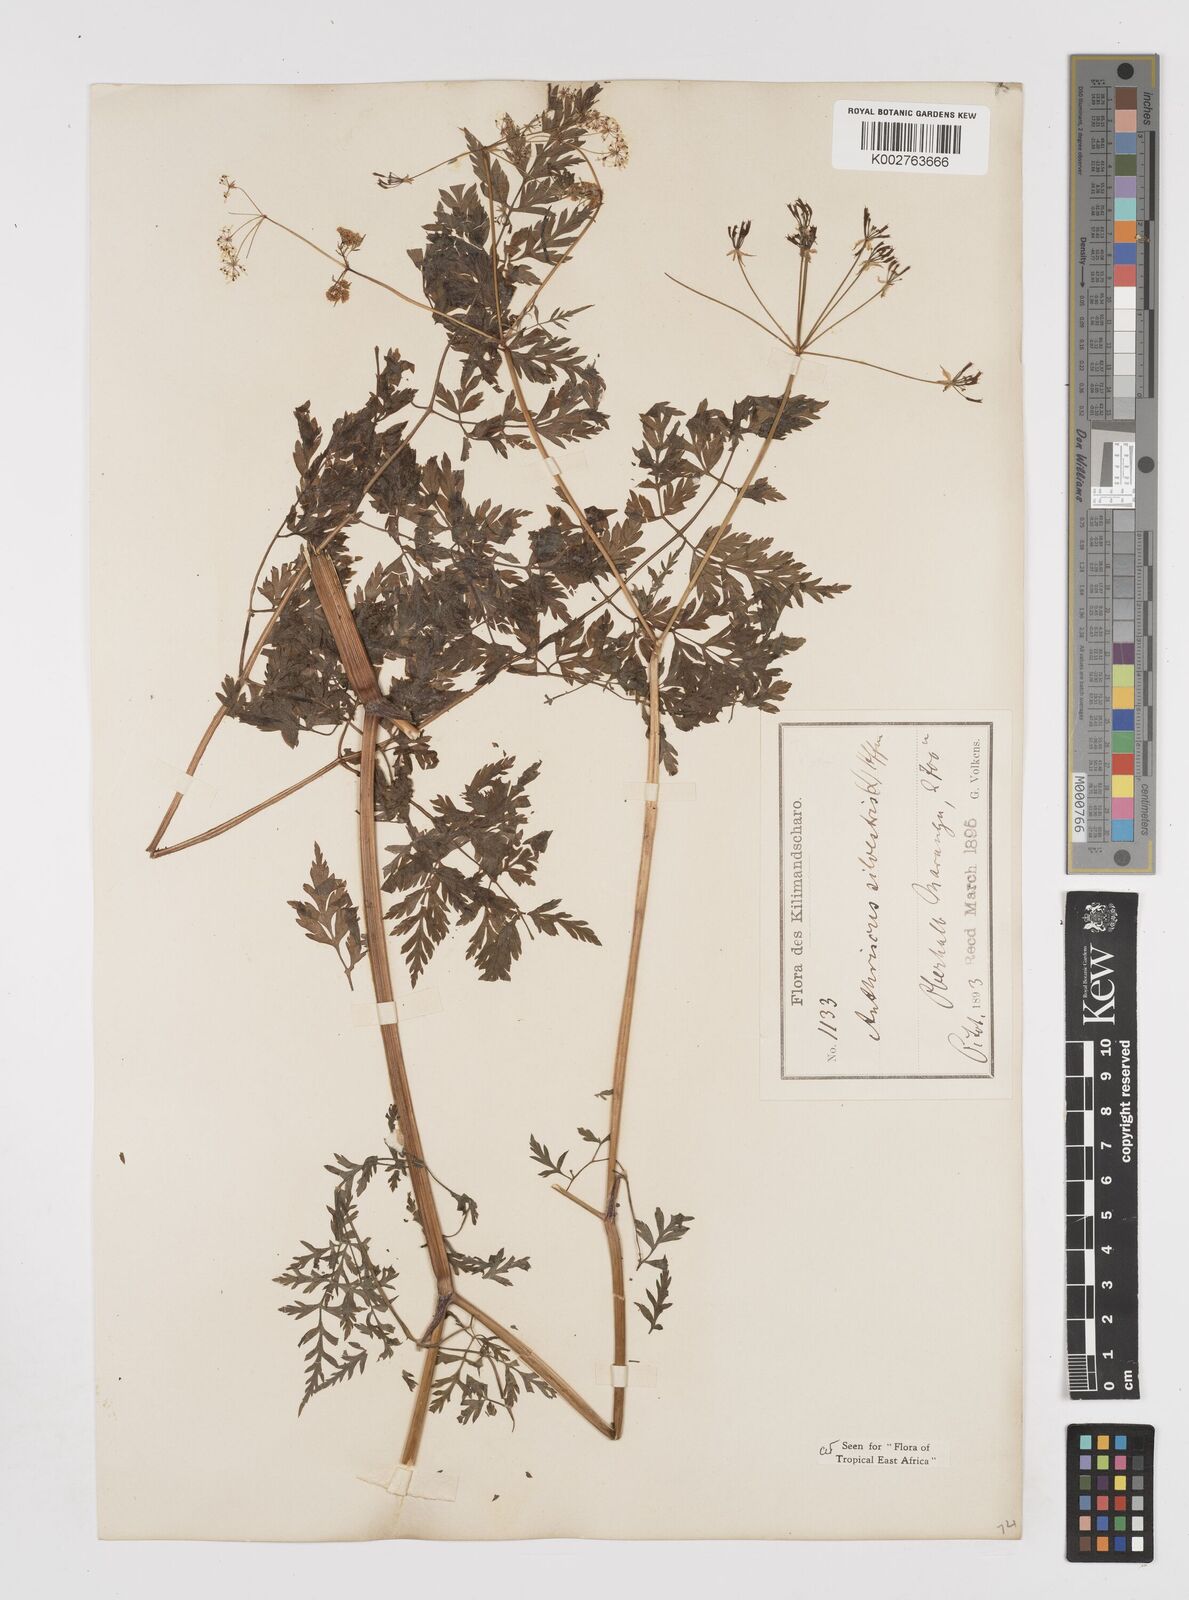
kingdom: Plantae
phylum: Tracheophyta
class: Magnoliopsida
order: Apiales
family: Apiaceae
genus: Anthriscus
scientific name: Anthriscus sylvestris
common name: Cow parsley
